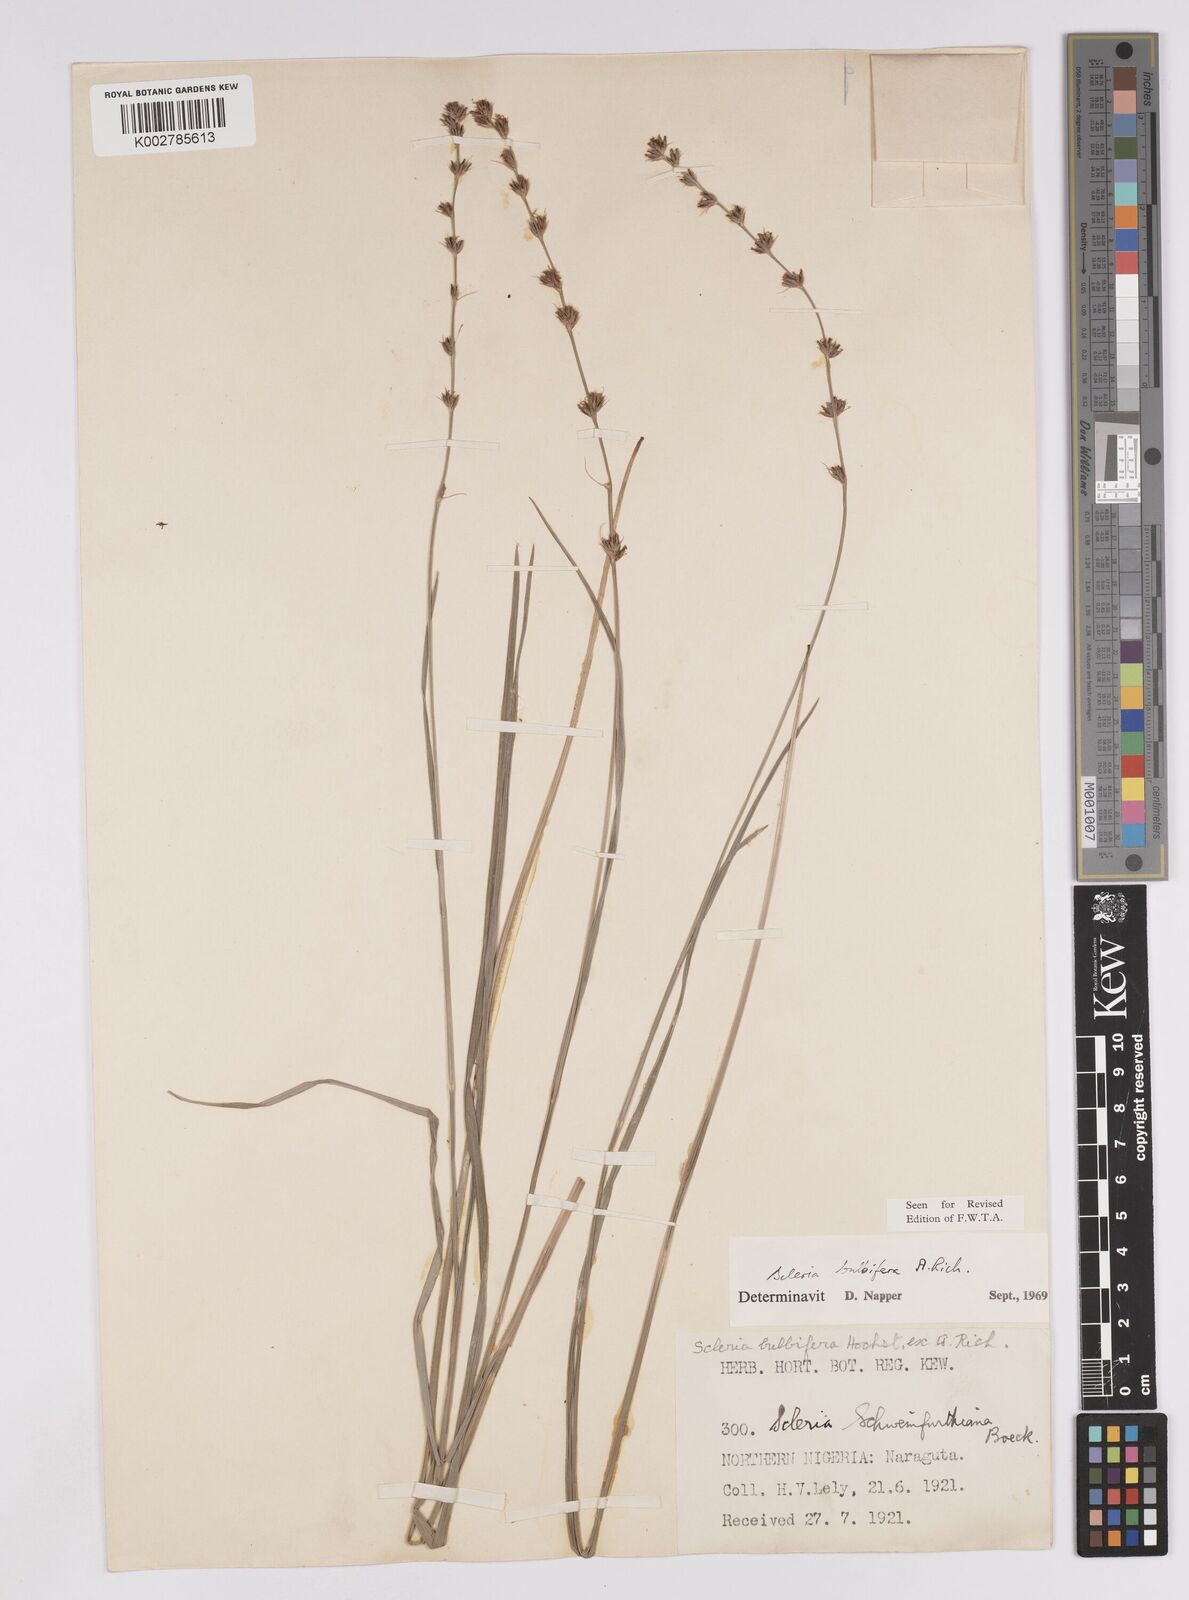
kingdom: Plantae
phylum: Tracheophyta
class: Liliopsida
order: Poales
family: Cyperaceae
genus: Scleria
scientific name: Scleria bulbifera
